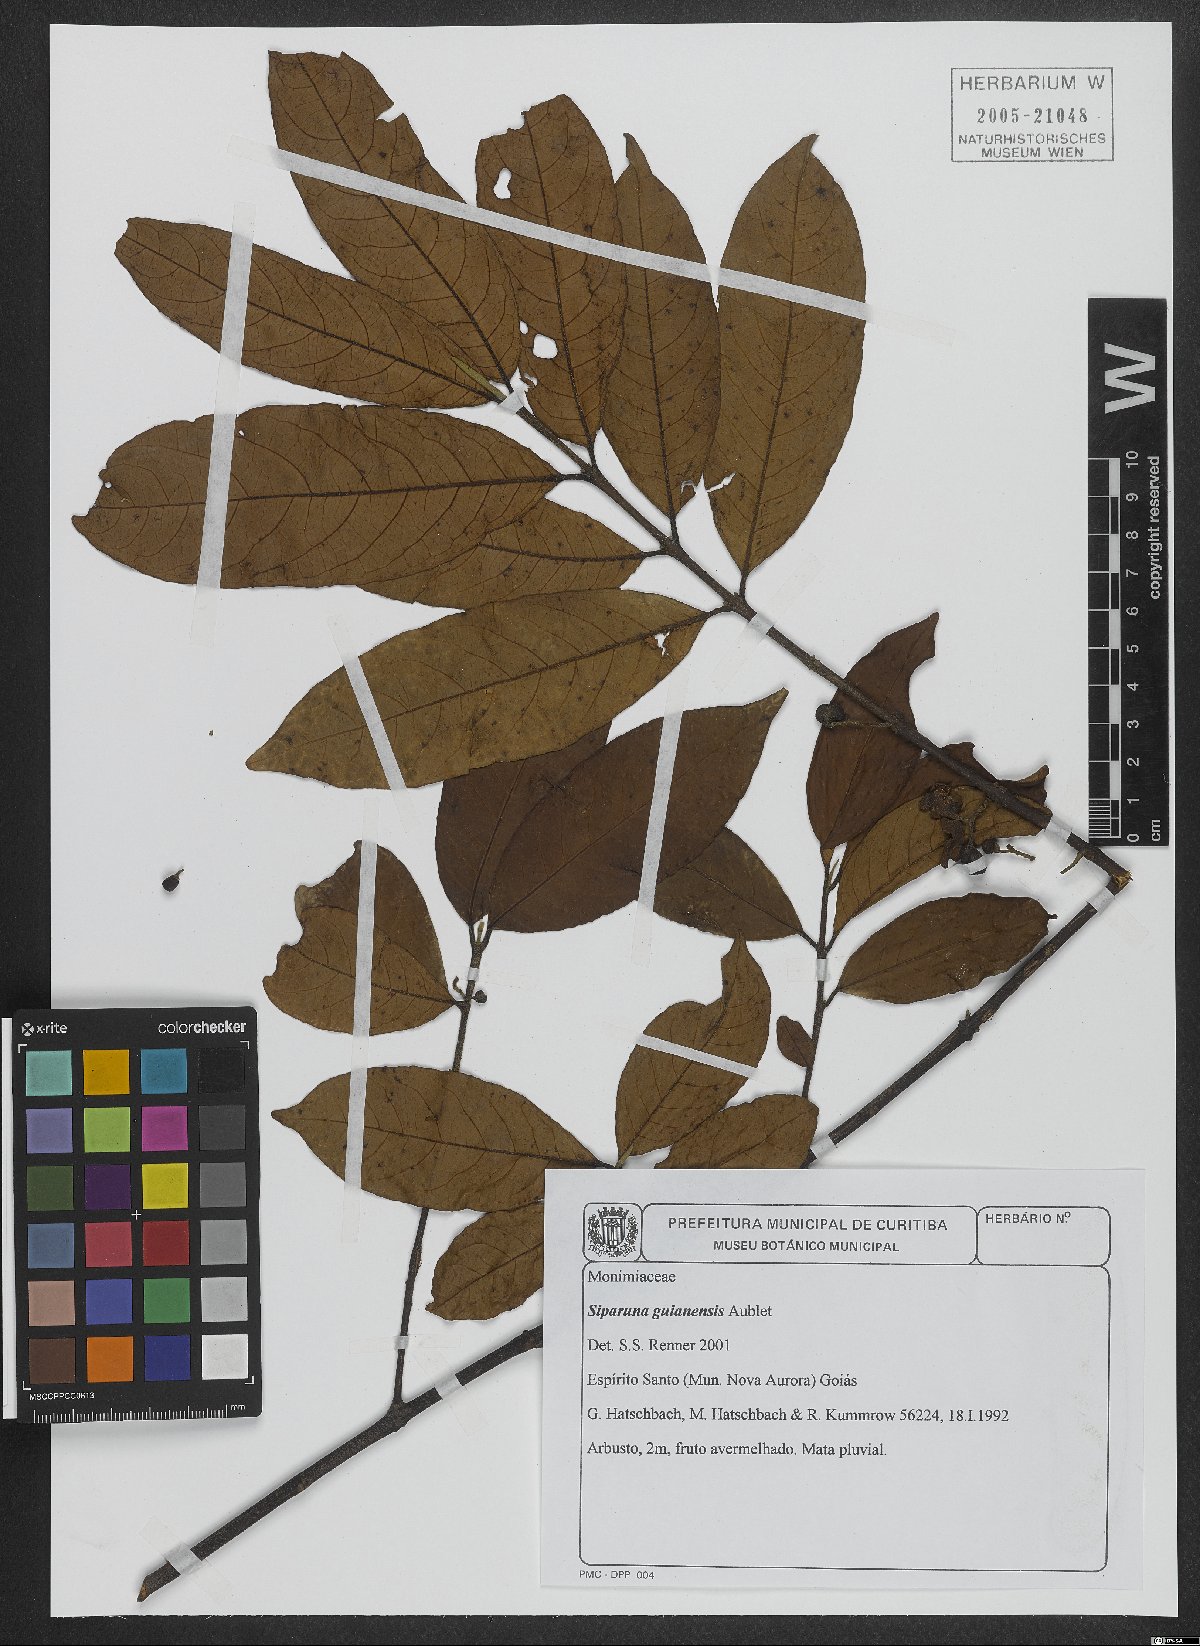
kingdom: Plantae
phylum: Tracheophyta
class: Magnoliopsida
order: Laurales
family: Siparunaceae
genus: Siparuna
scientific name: Siparuna guianensis
